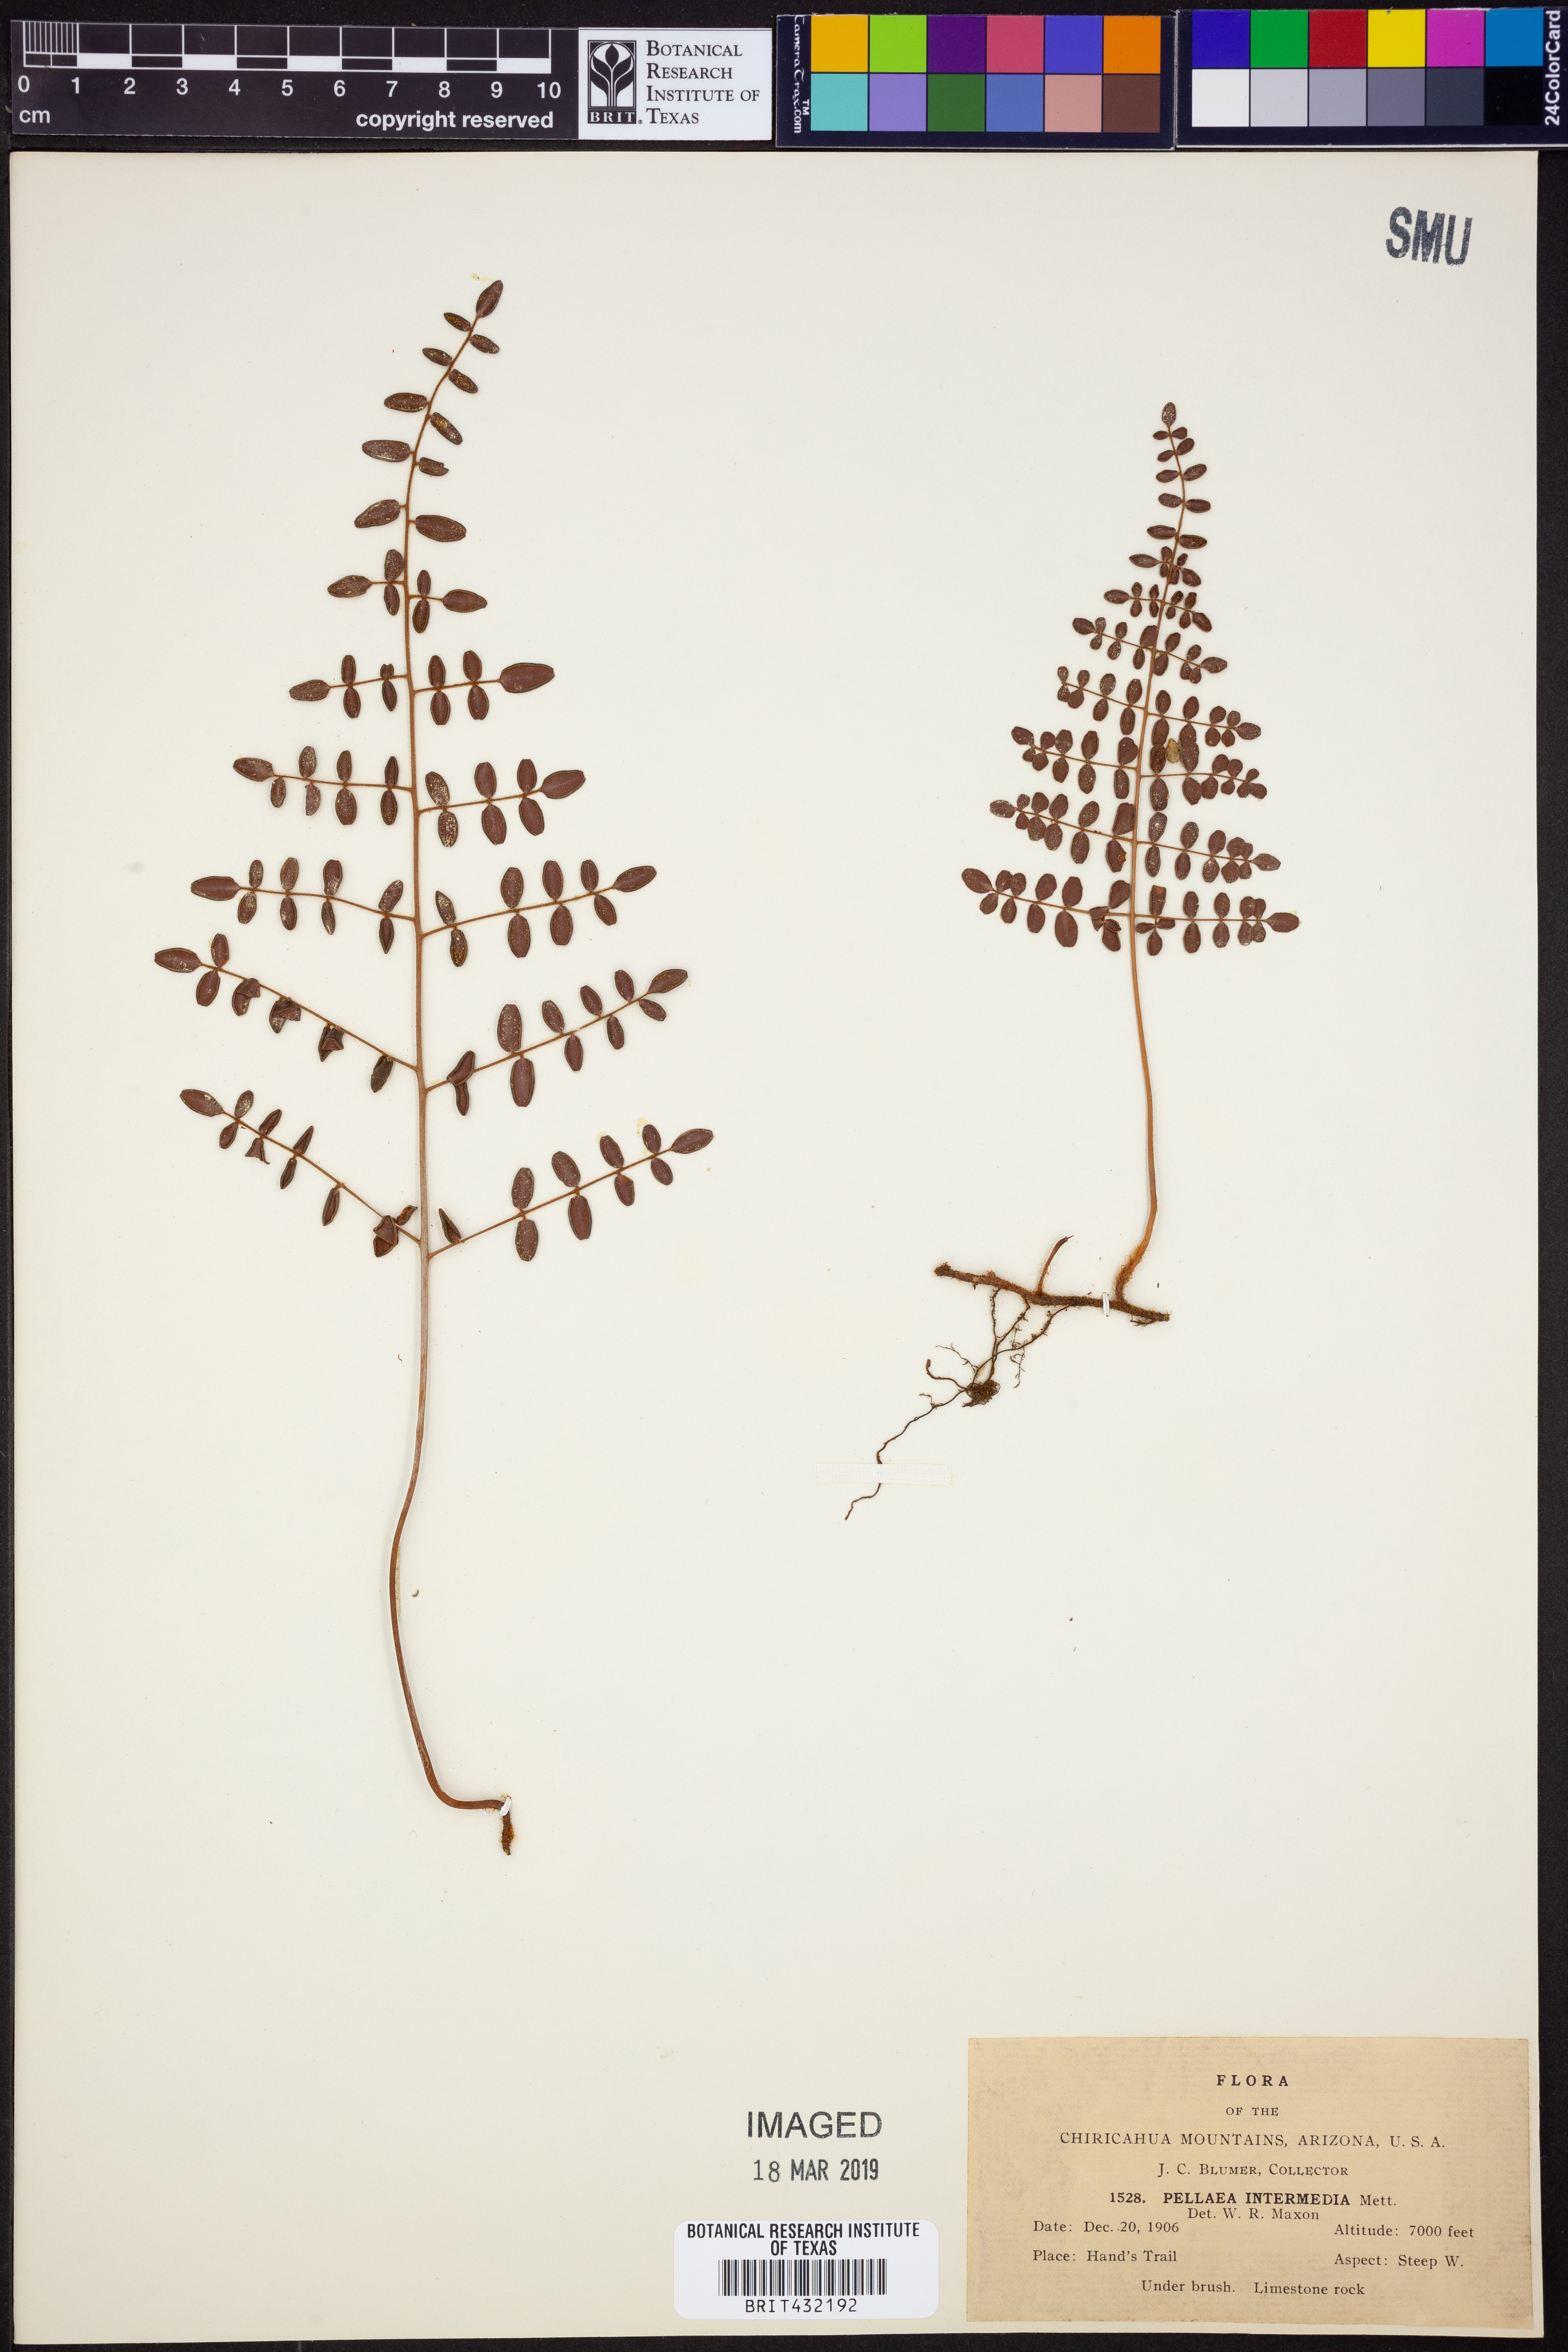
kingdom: Plantae
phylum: Tracheophyta
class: Polypodiopsida
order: Polypodiales
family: Pteridaceae
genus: Pellaea
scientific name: Pellaea intermedia
